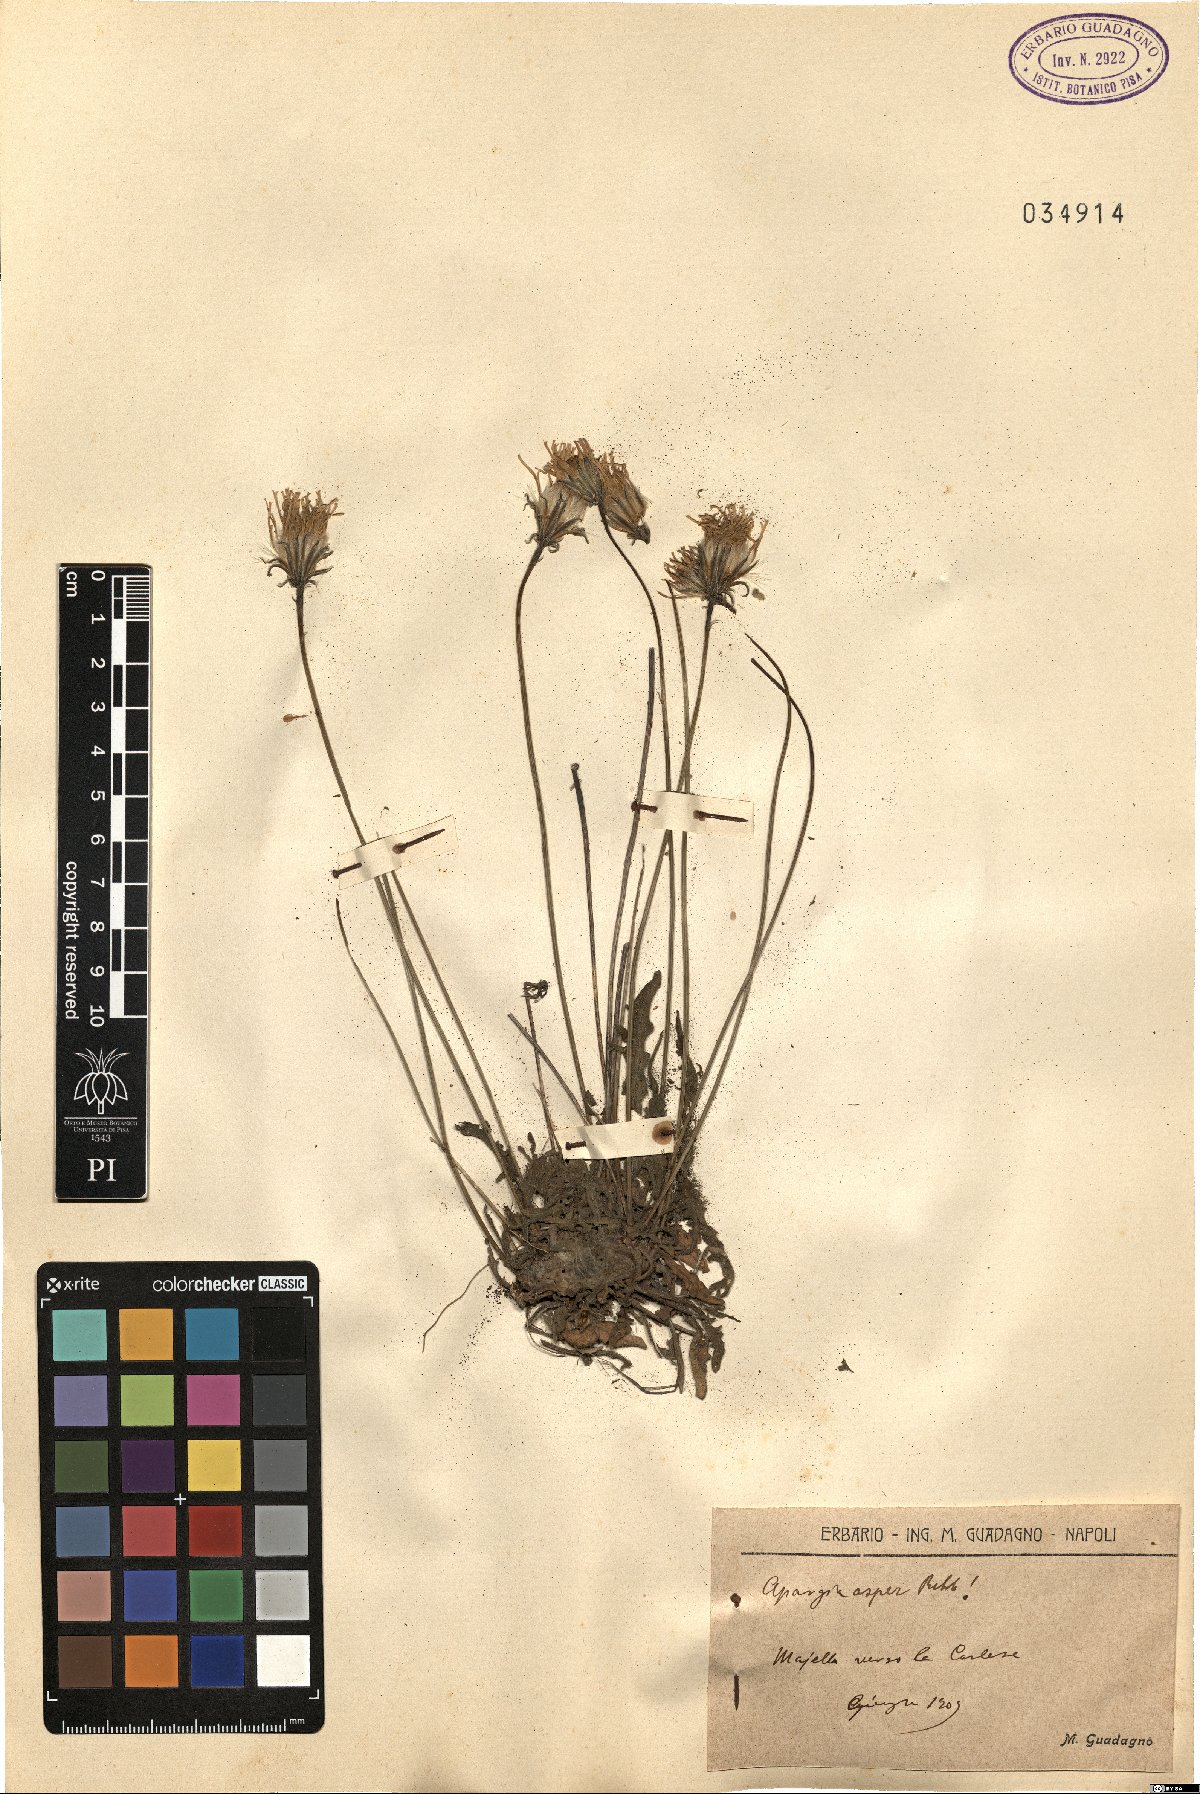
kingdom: Plantae
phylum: Tracheophyta
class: Magnoliopsida
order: Asterales
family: Asteraceae
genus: Leontodon
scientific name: Leontodon biscutellifolius
